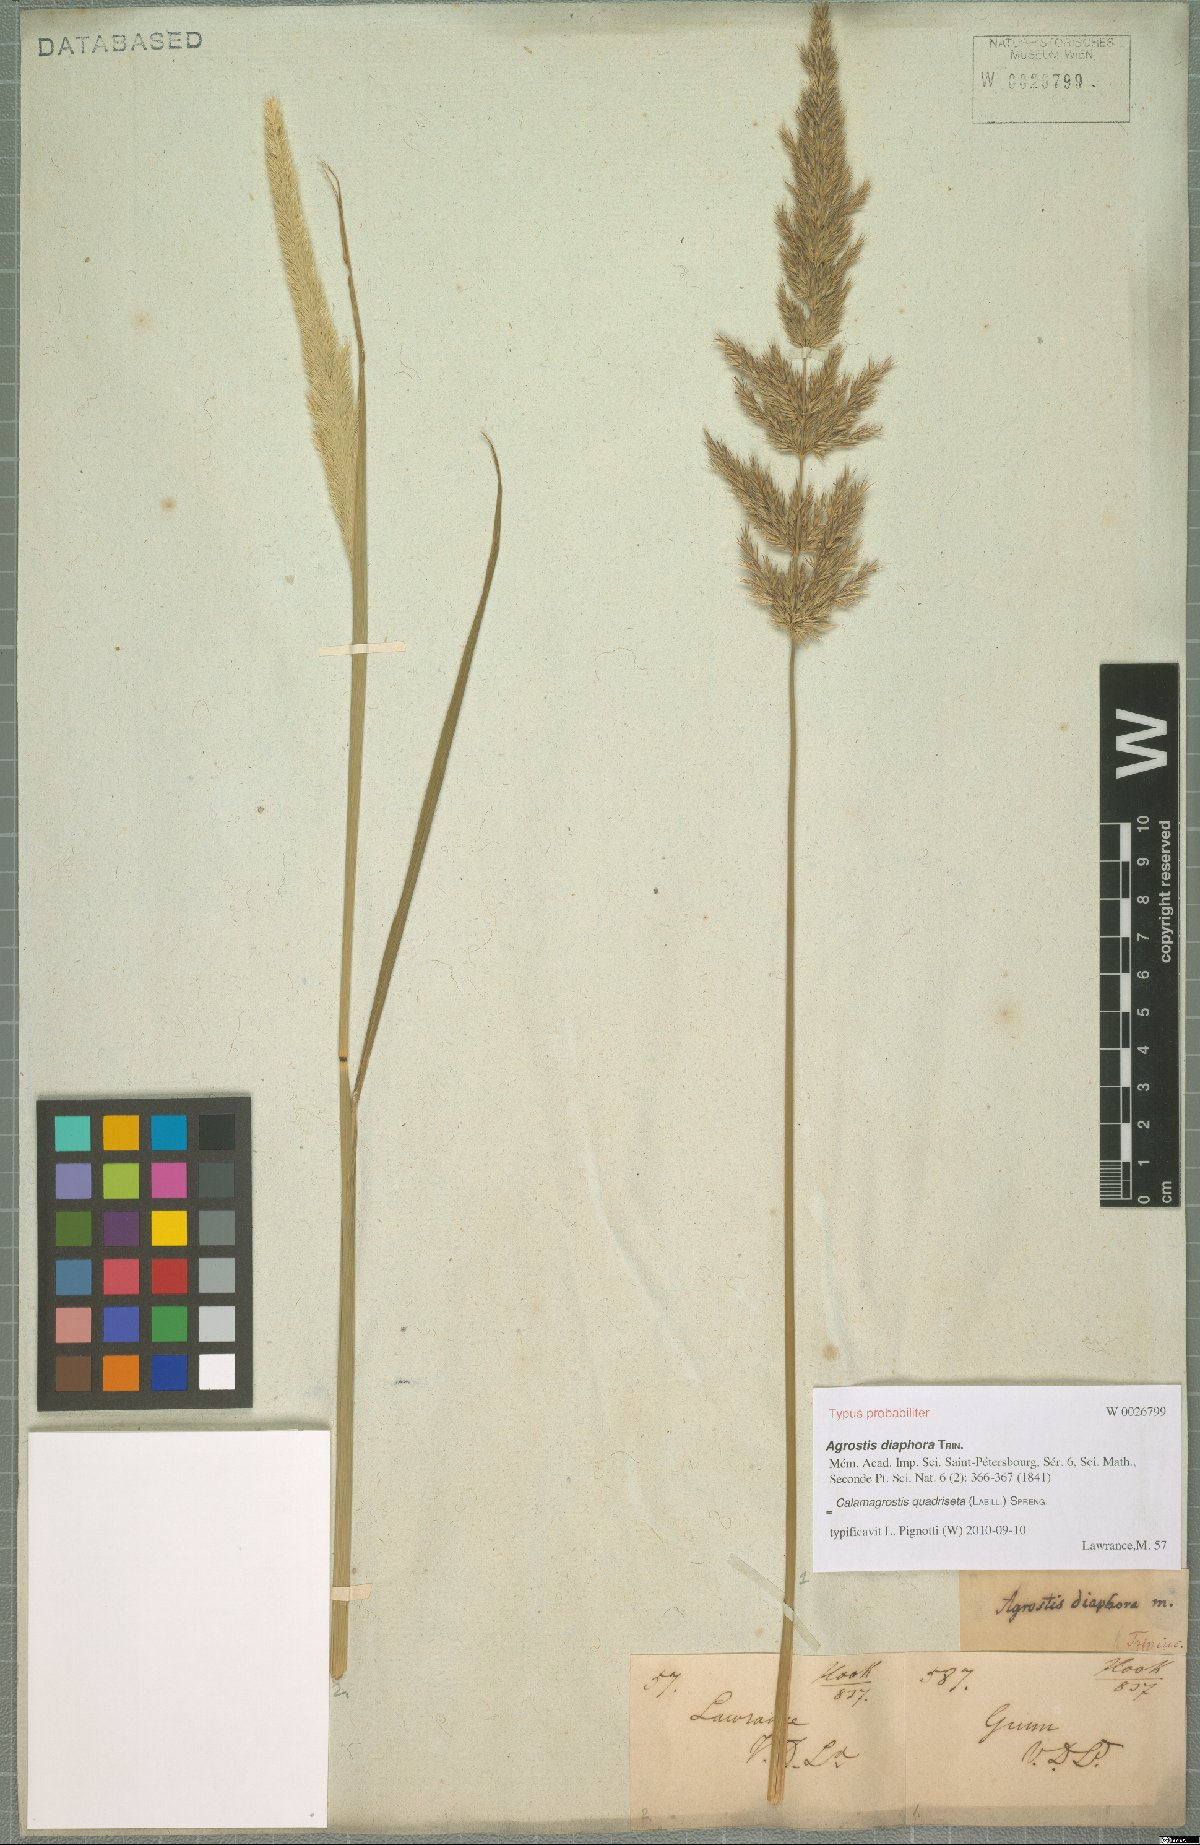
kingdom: Plantae
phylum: Tracheophyta
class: Liliopsida
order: Poales
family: Poaceae
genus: Calamagrostis
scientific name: Calamagrostis quadriseta
